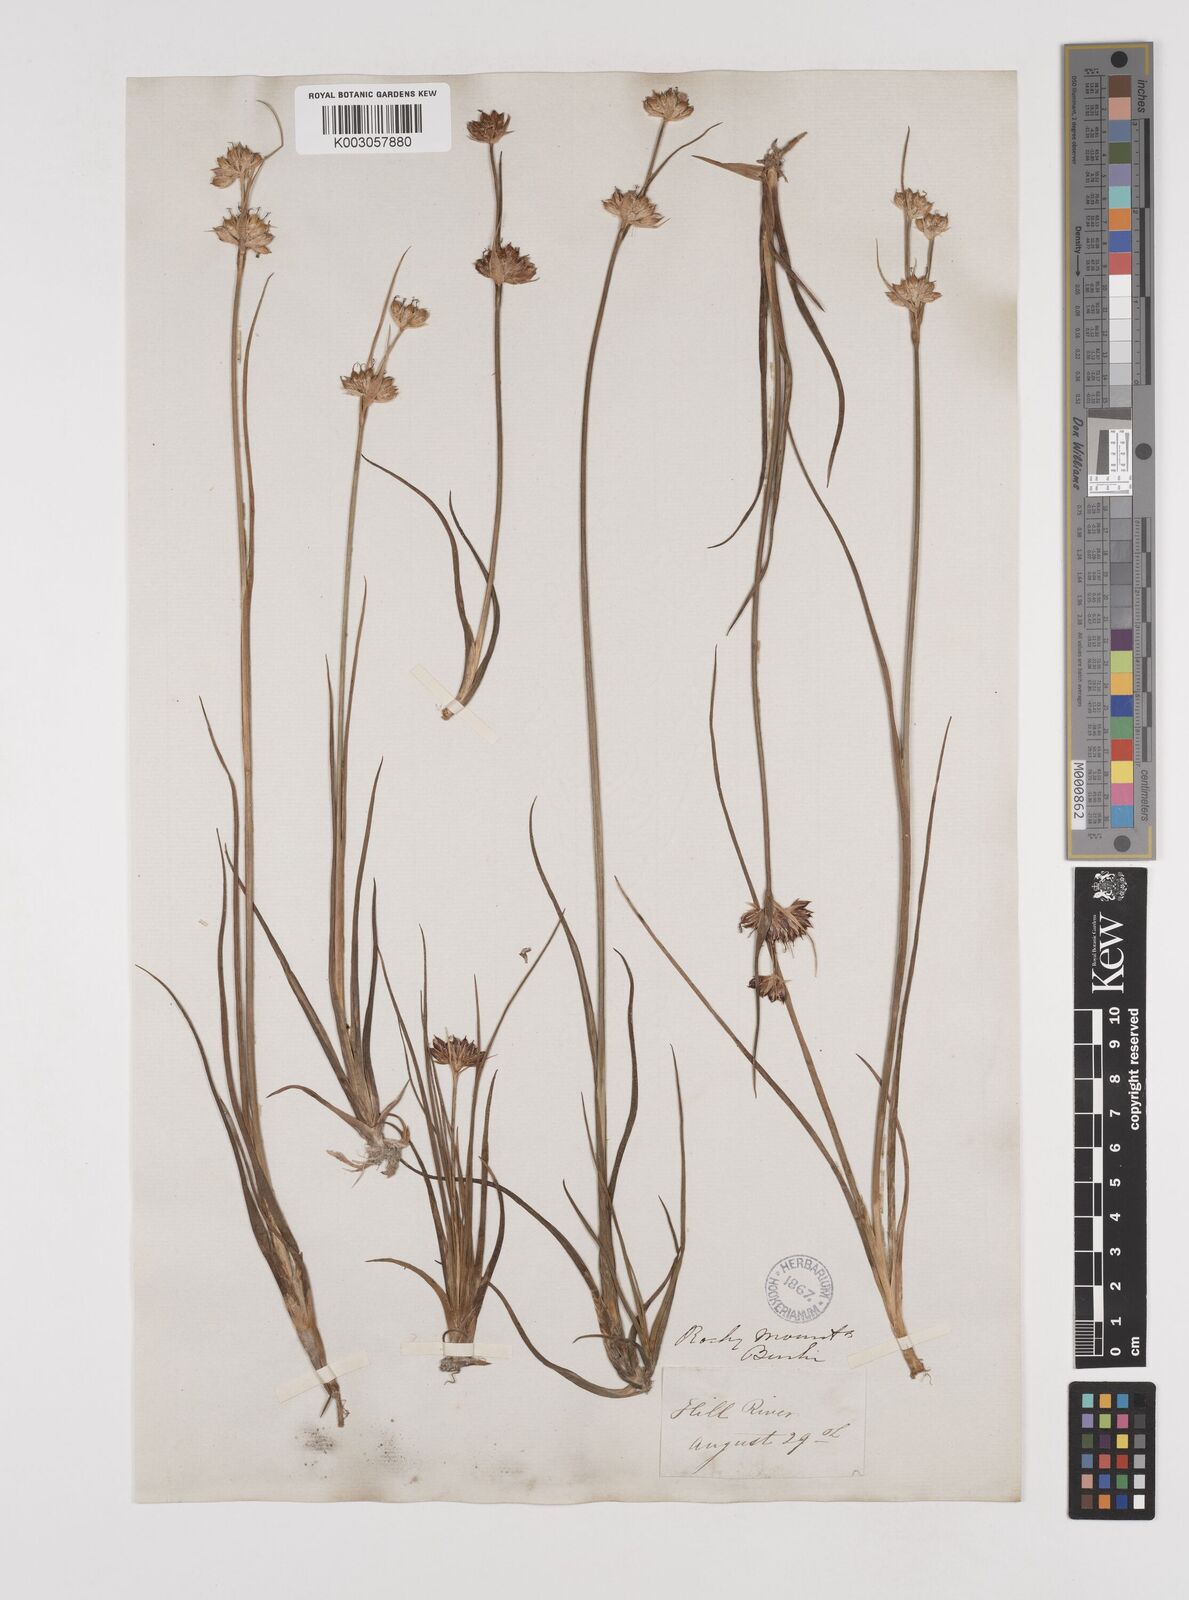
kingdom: Plantae
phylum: Tracheophyta
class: Liliopsida
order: Poales
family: Juncaceae
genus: Juncus
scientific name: Juncus castaneus
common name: Chestnut rush
